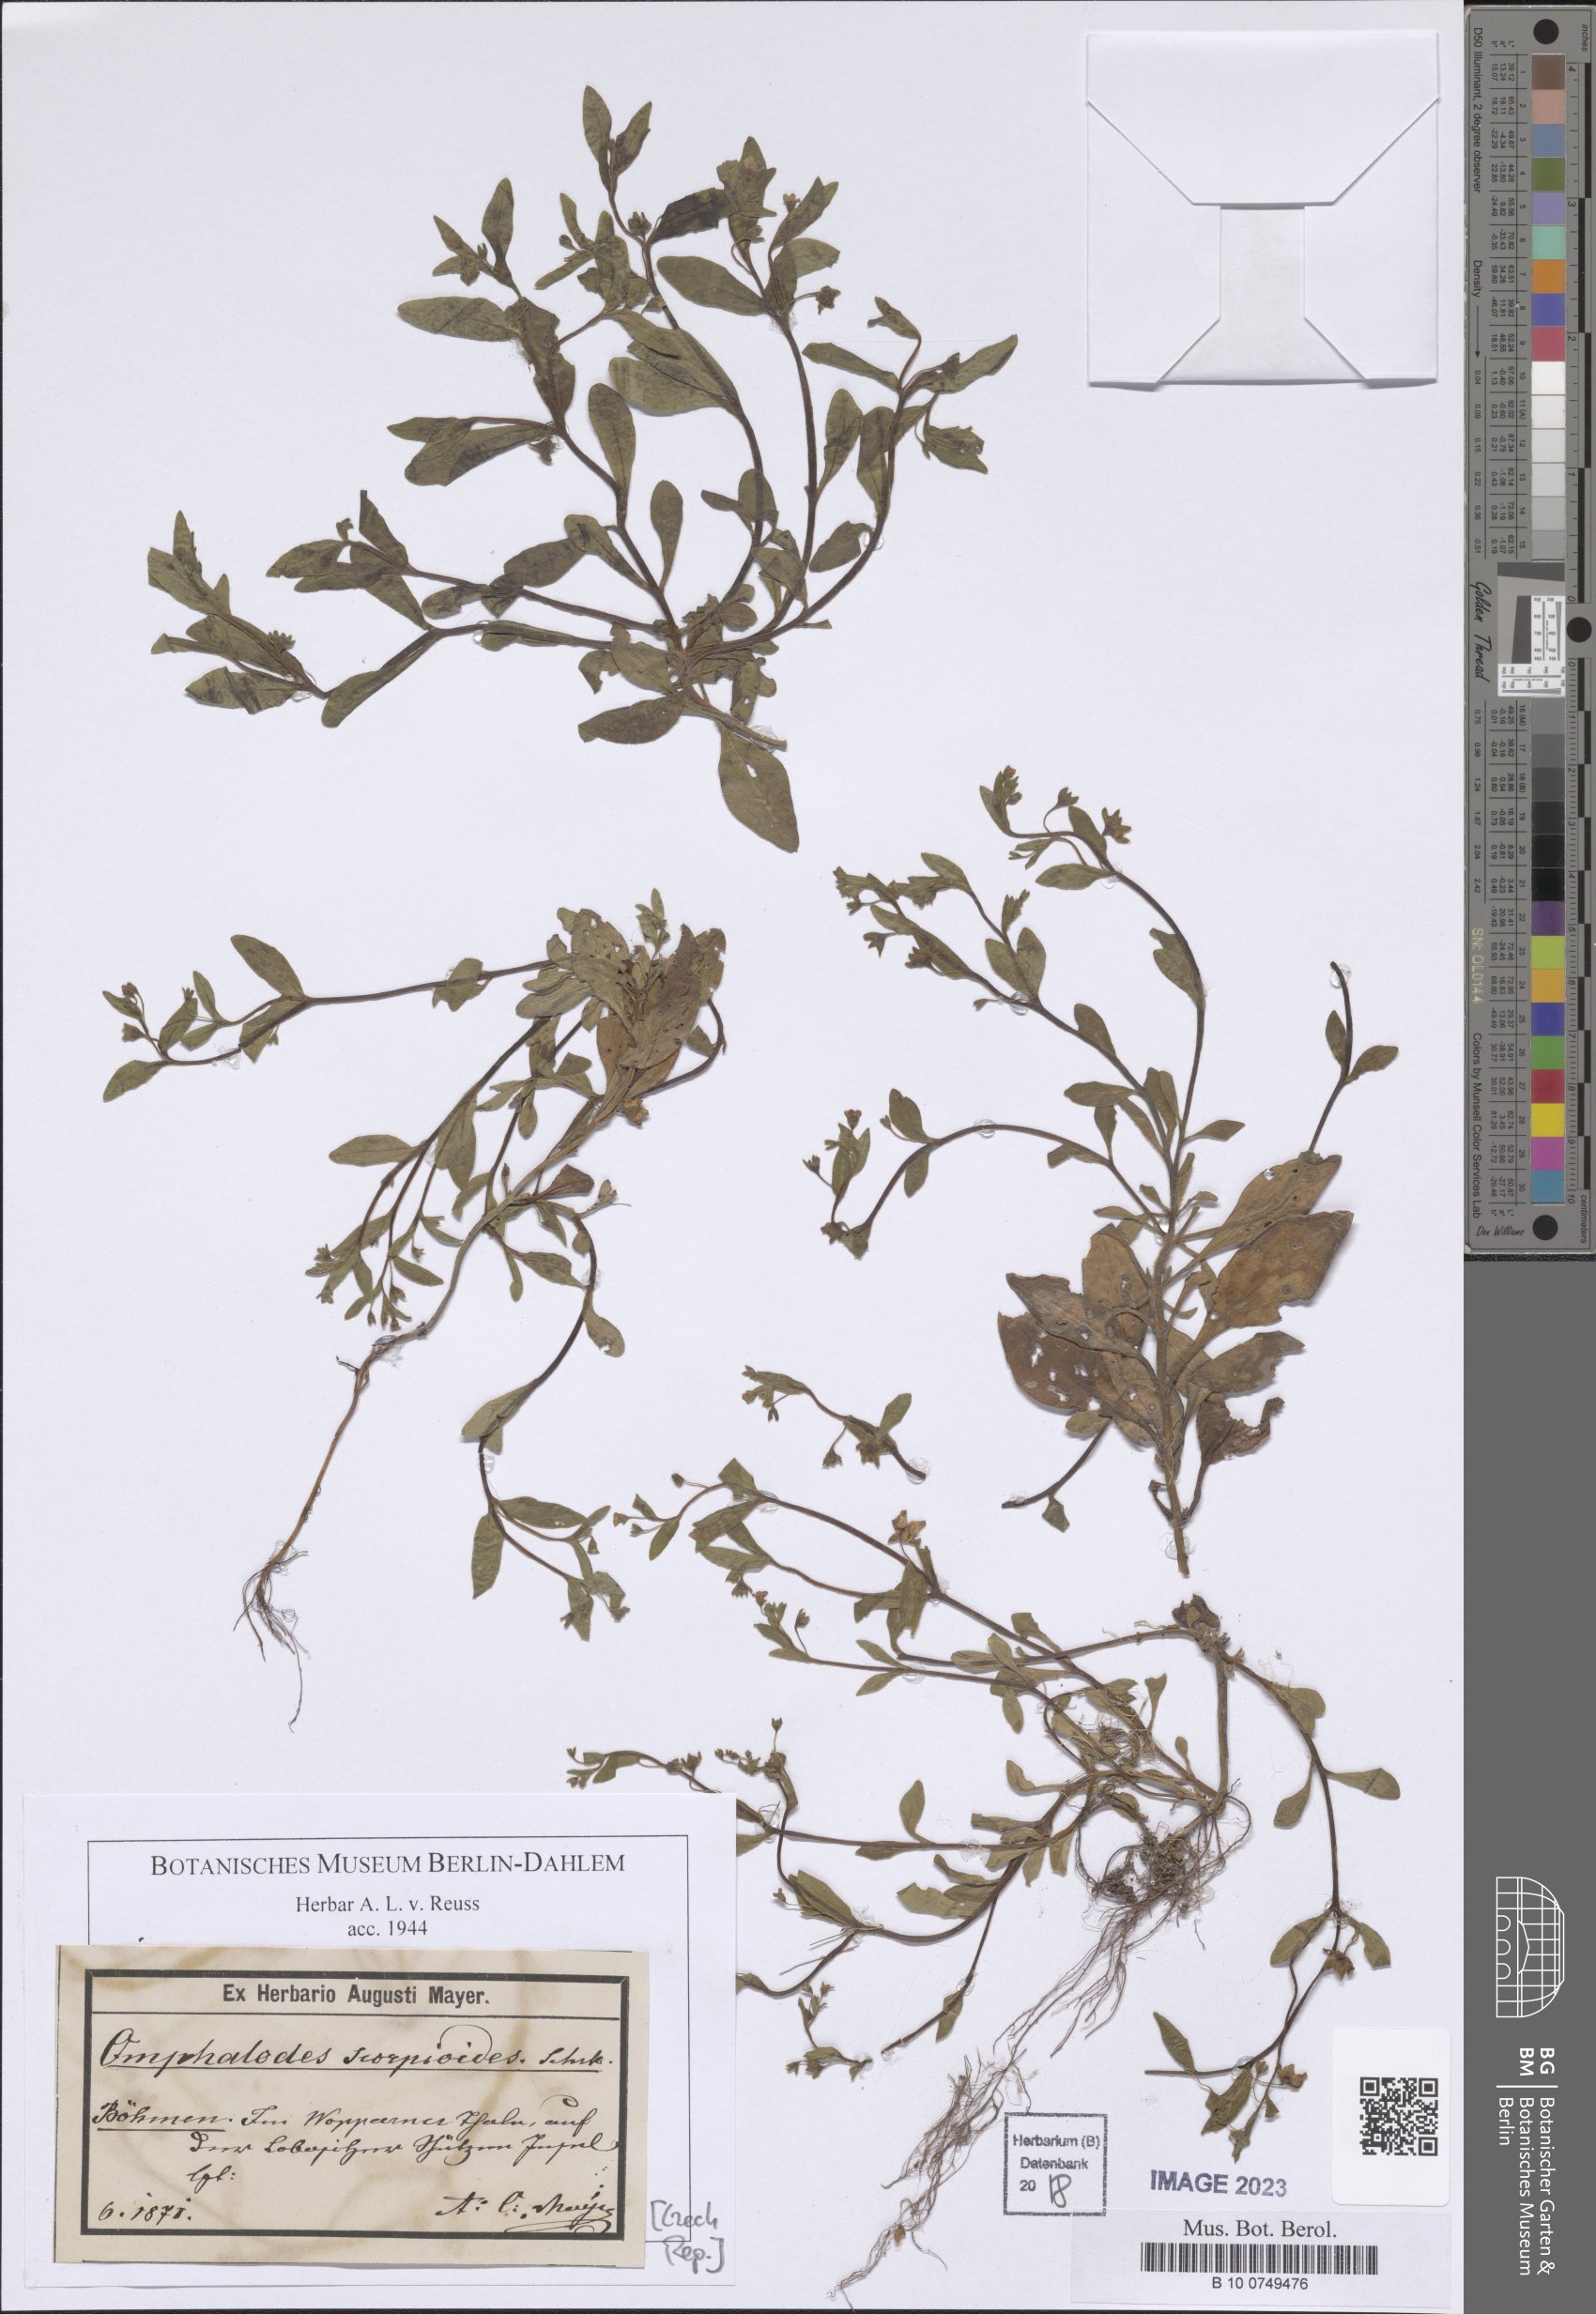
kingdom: Plantae
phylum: Tracheophyta
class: Magnoliopsida
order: Boraginales
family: Boraginaceae
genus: Memoremea
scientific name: Memoremea scorpioides
